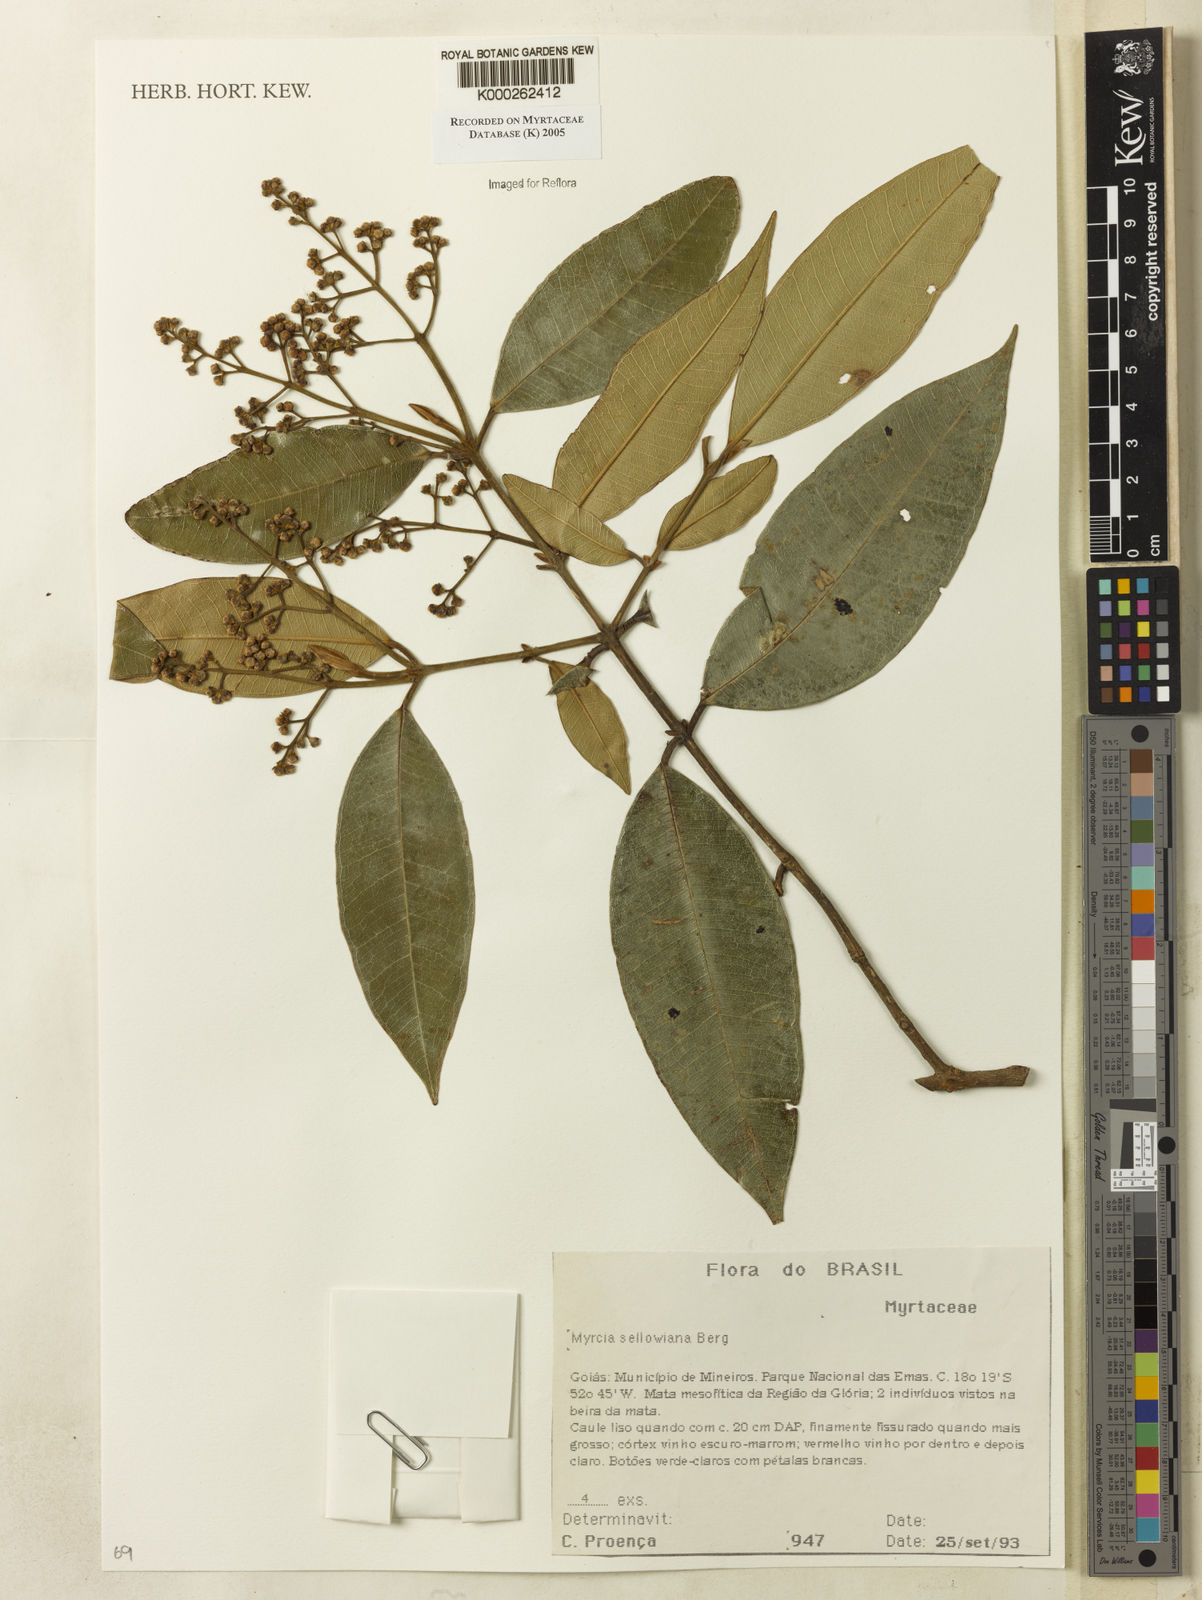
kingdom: Plantae
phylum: Tracheophyta
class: Magnoliopsida
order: Myrtales
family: Myrtaceae
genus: Myrcia
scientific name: Myrcia splendens
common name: Surinam cherry
